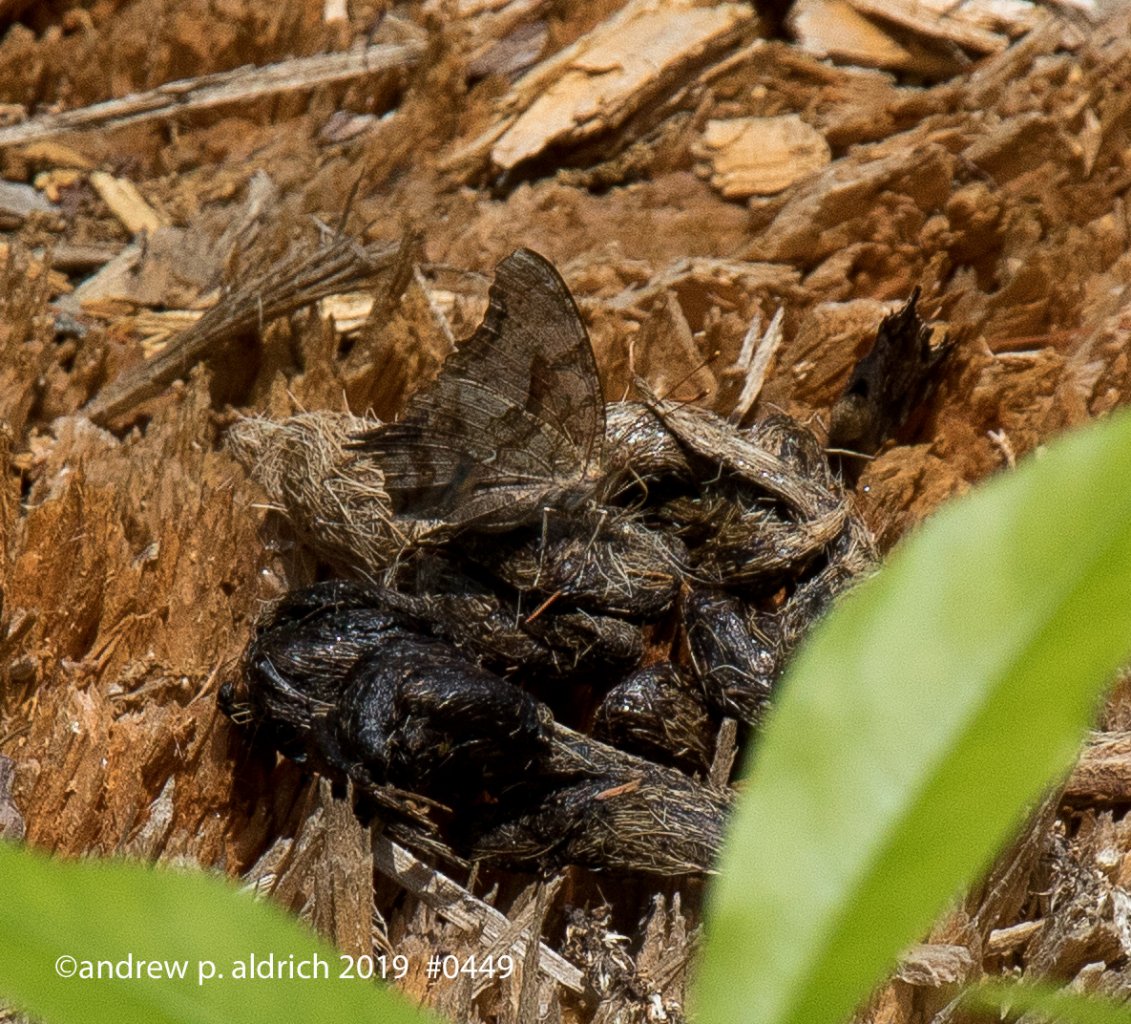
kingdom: Animalia
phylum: Arthropoda
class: Insecta
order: Lepidoptera
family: Nymphalidae
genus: Polygonia
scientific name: Polygonia interrogationis
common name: Question Mark
